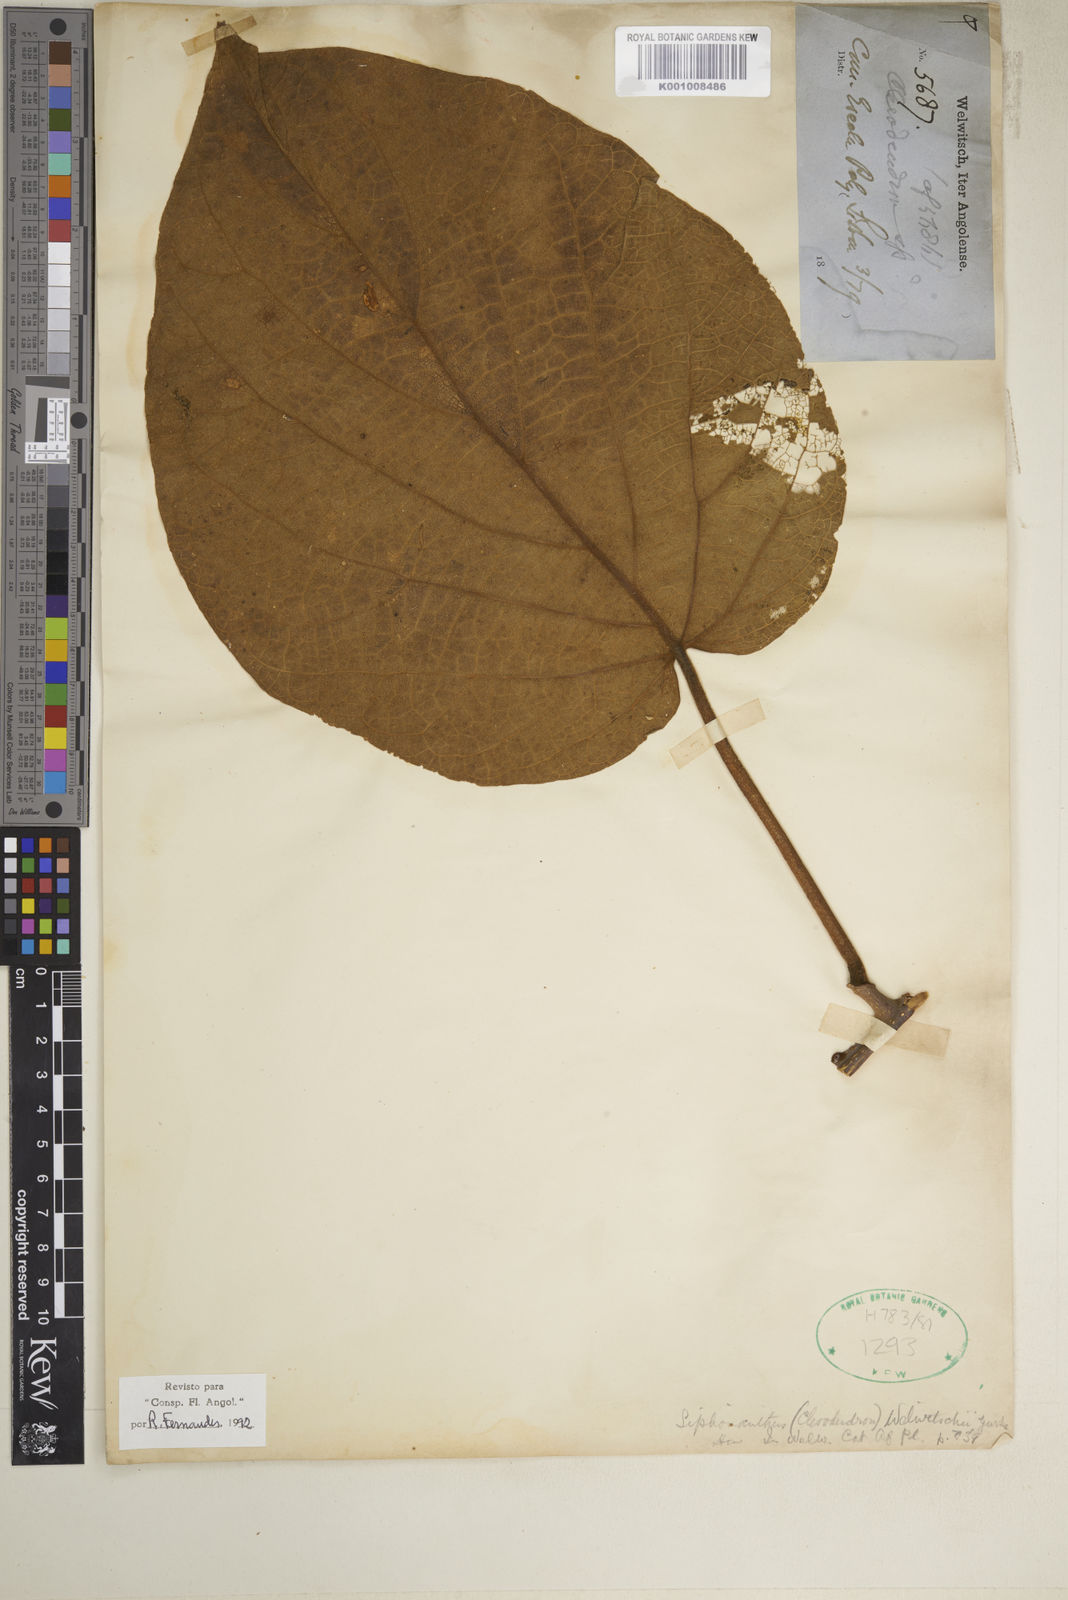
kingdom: Plantae
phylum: Tracheophyta
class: Magnoliopsida
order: Lamiales
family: Lamiaceae
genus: Clerodendrum
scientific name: Clerodendrum
